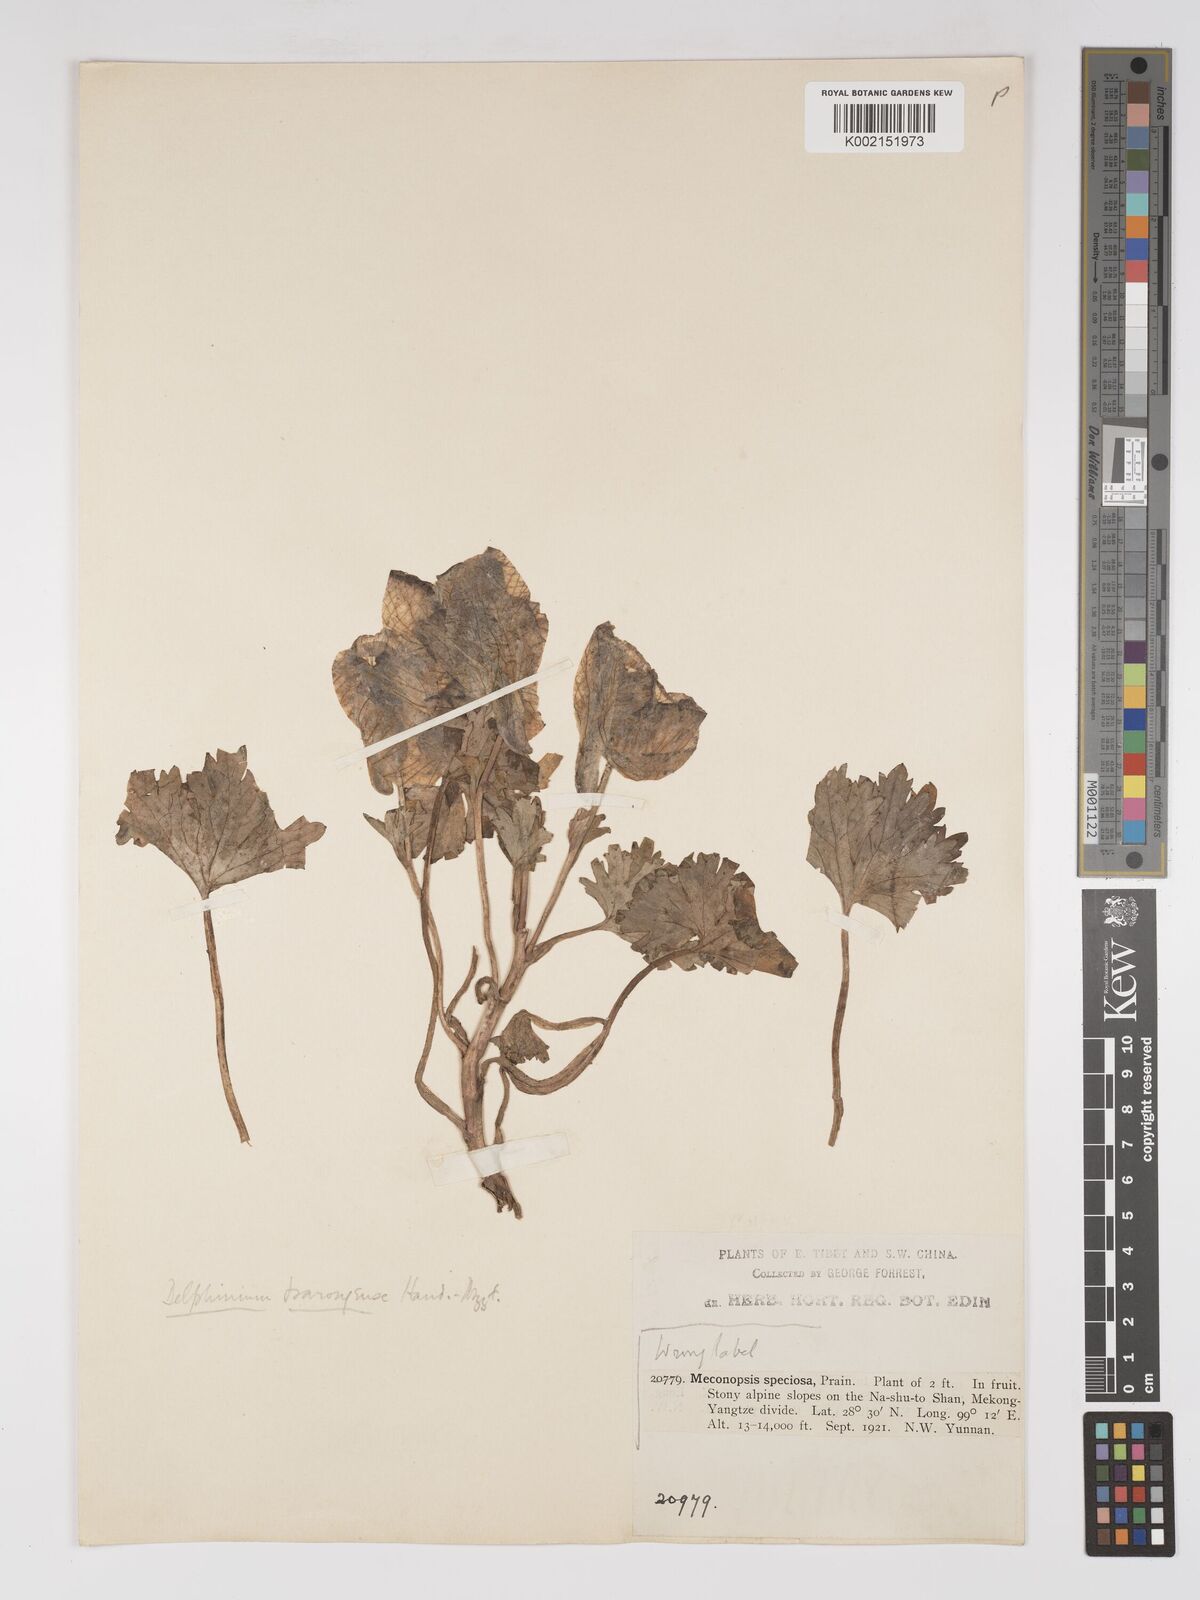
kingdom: Plantae
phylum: Tracheophyta
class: Magnoliopsida
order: Ranunculales
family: Ranunculaceae
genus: Delphinium
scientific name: Delphinium chrysotrichum
